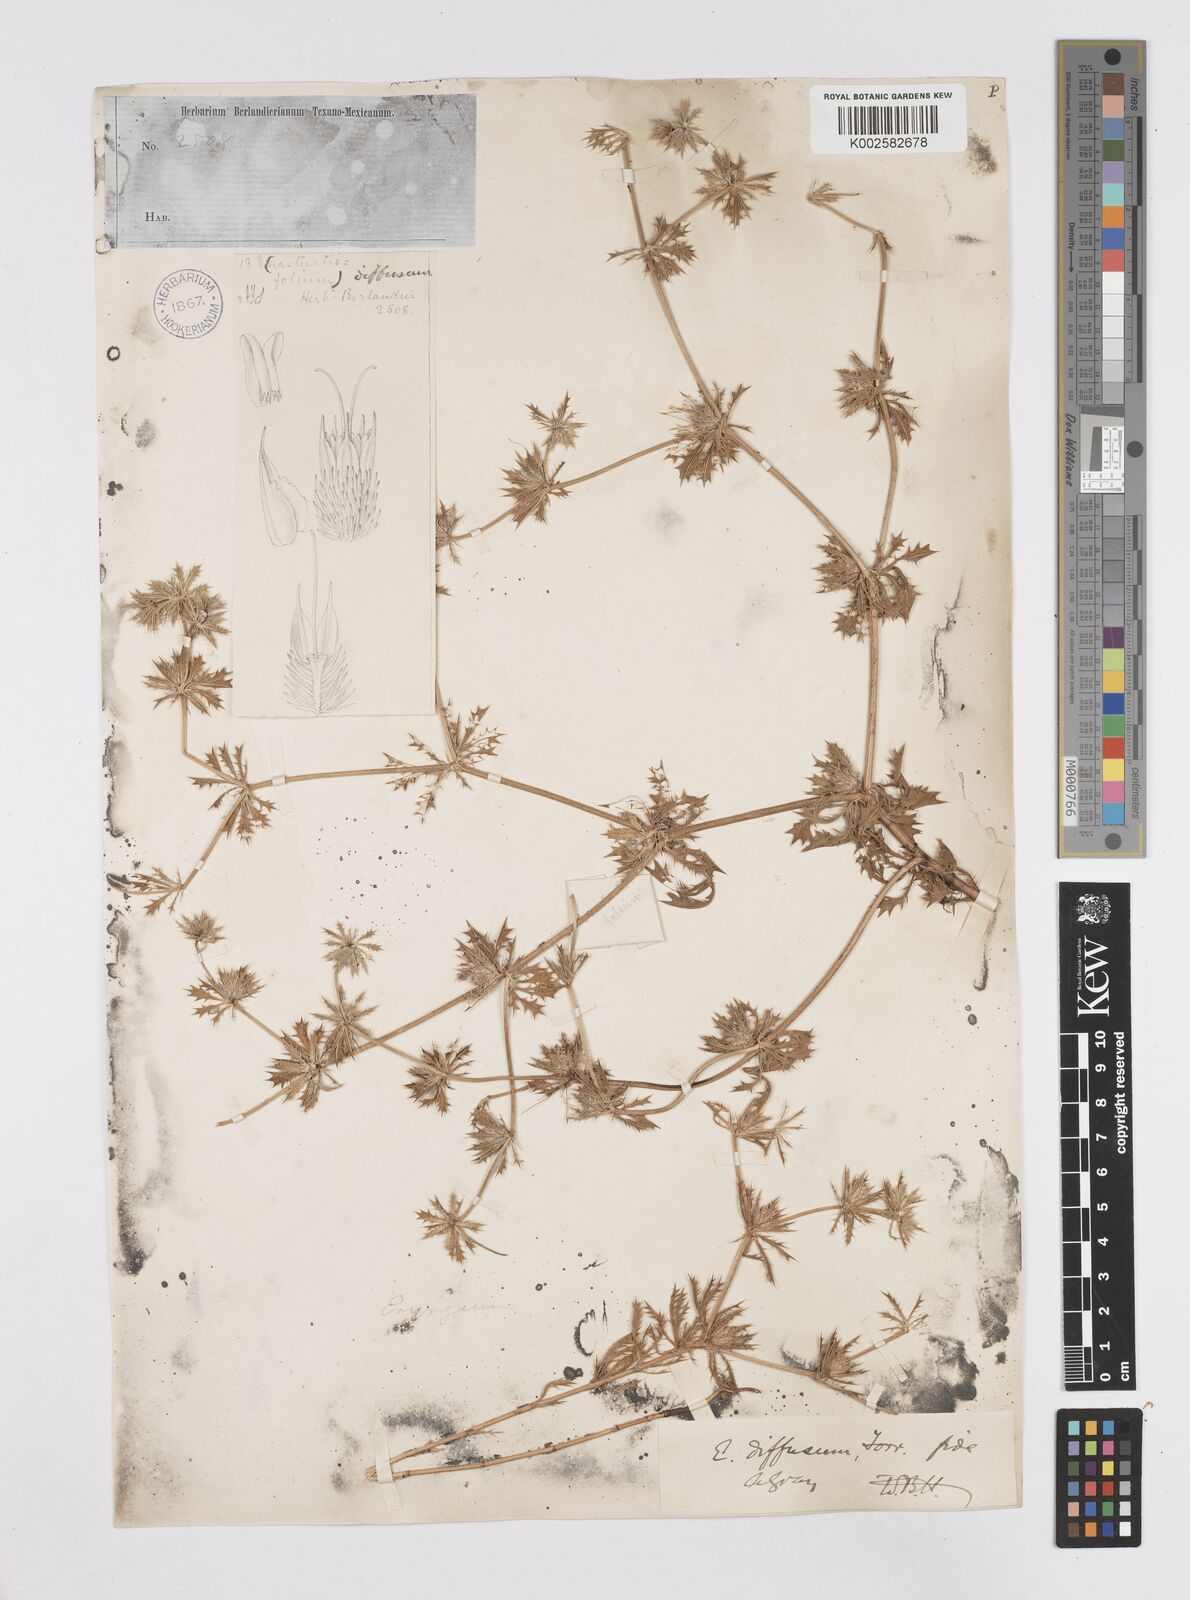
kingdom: Plantae
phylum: Tracheophyta
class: Magnoliopsida
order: Apiales
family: Apiaceae
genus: Eryngium
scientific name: Eryngium diffusum
